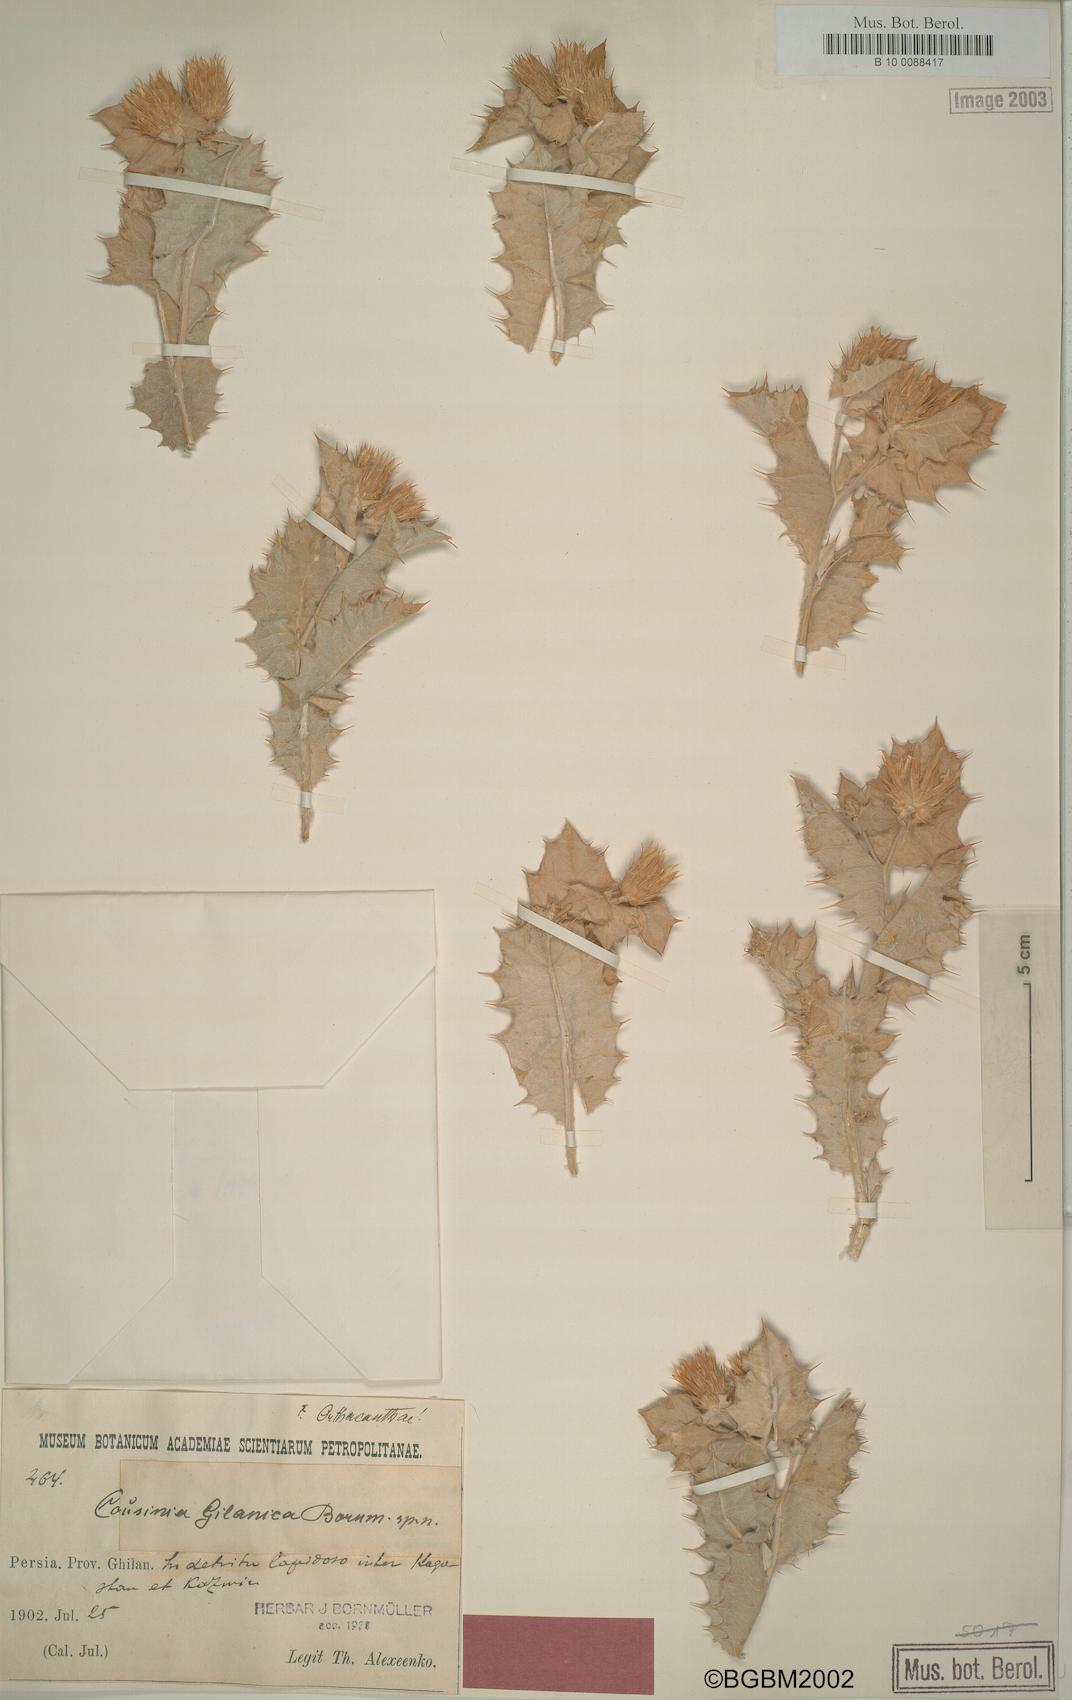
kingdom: Plantae
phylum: Tracheophyta
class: Magnoliopsida
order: Asterales
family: Asteraceae
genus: Cousinia
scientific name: Cousinia gilanica
